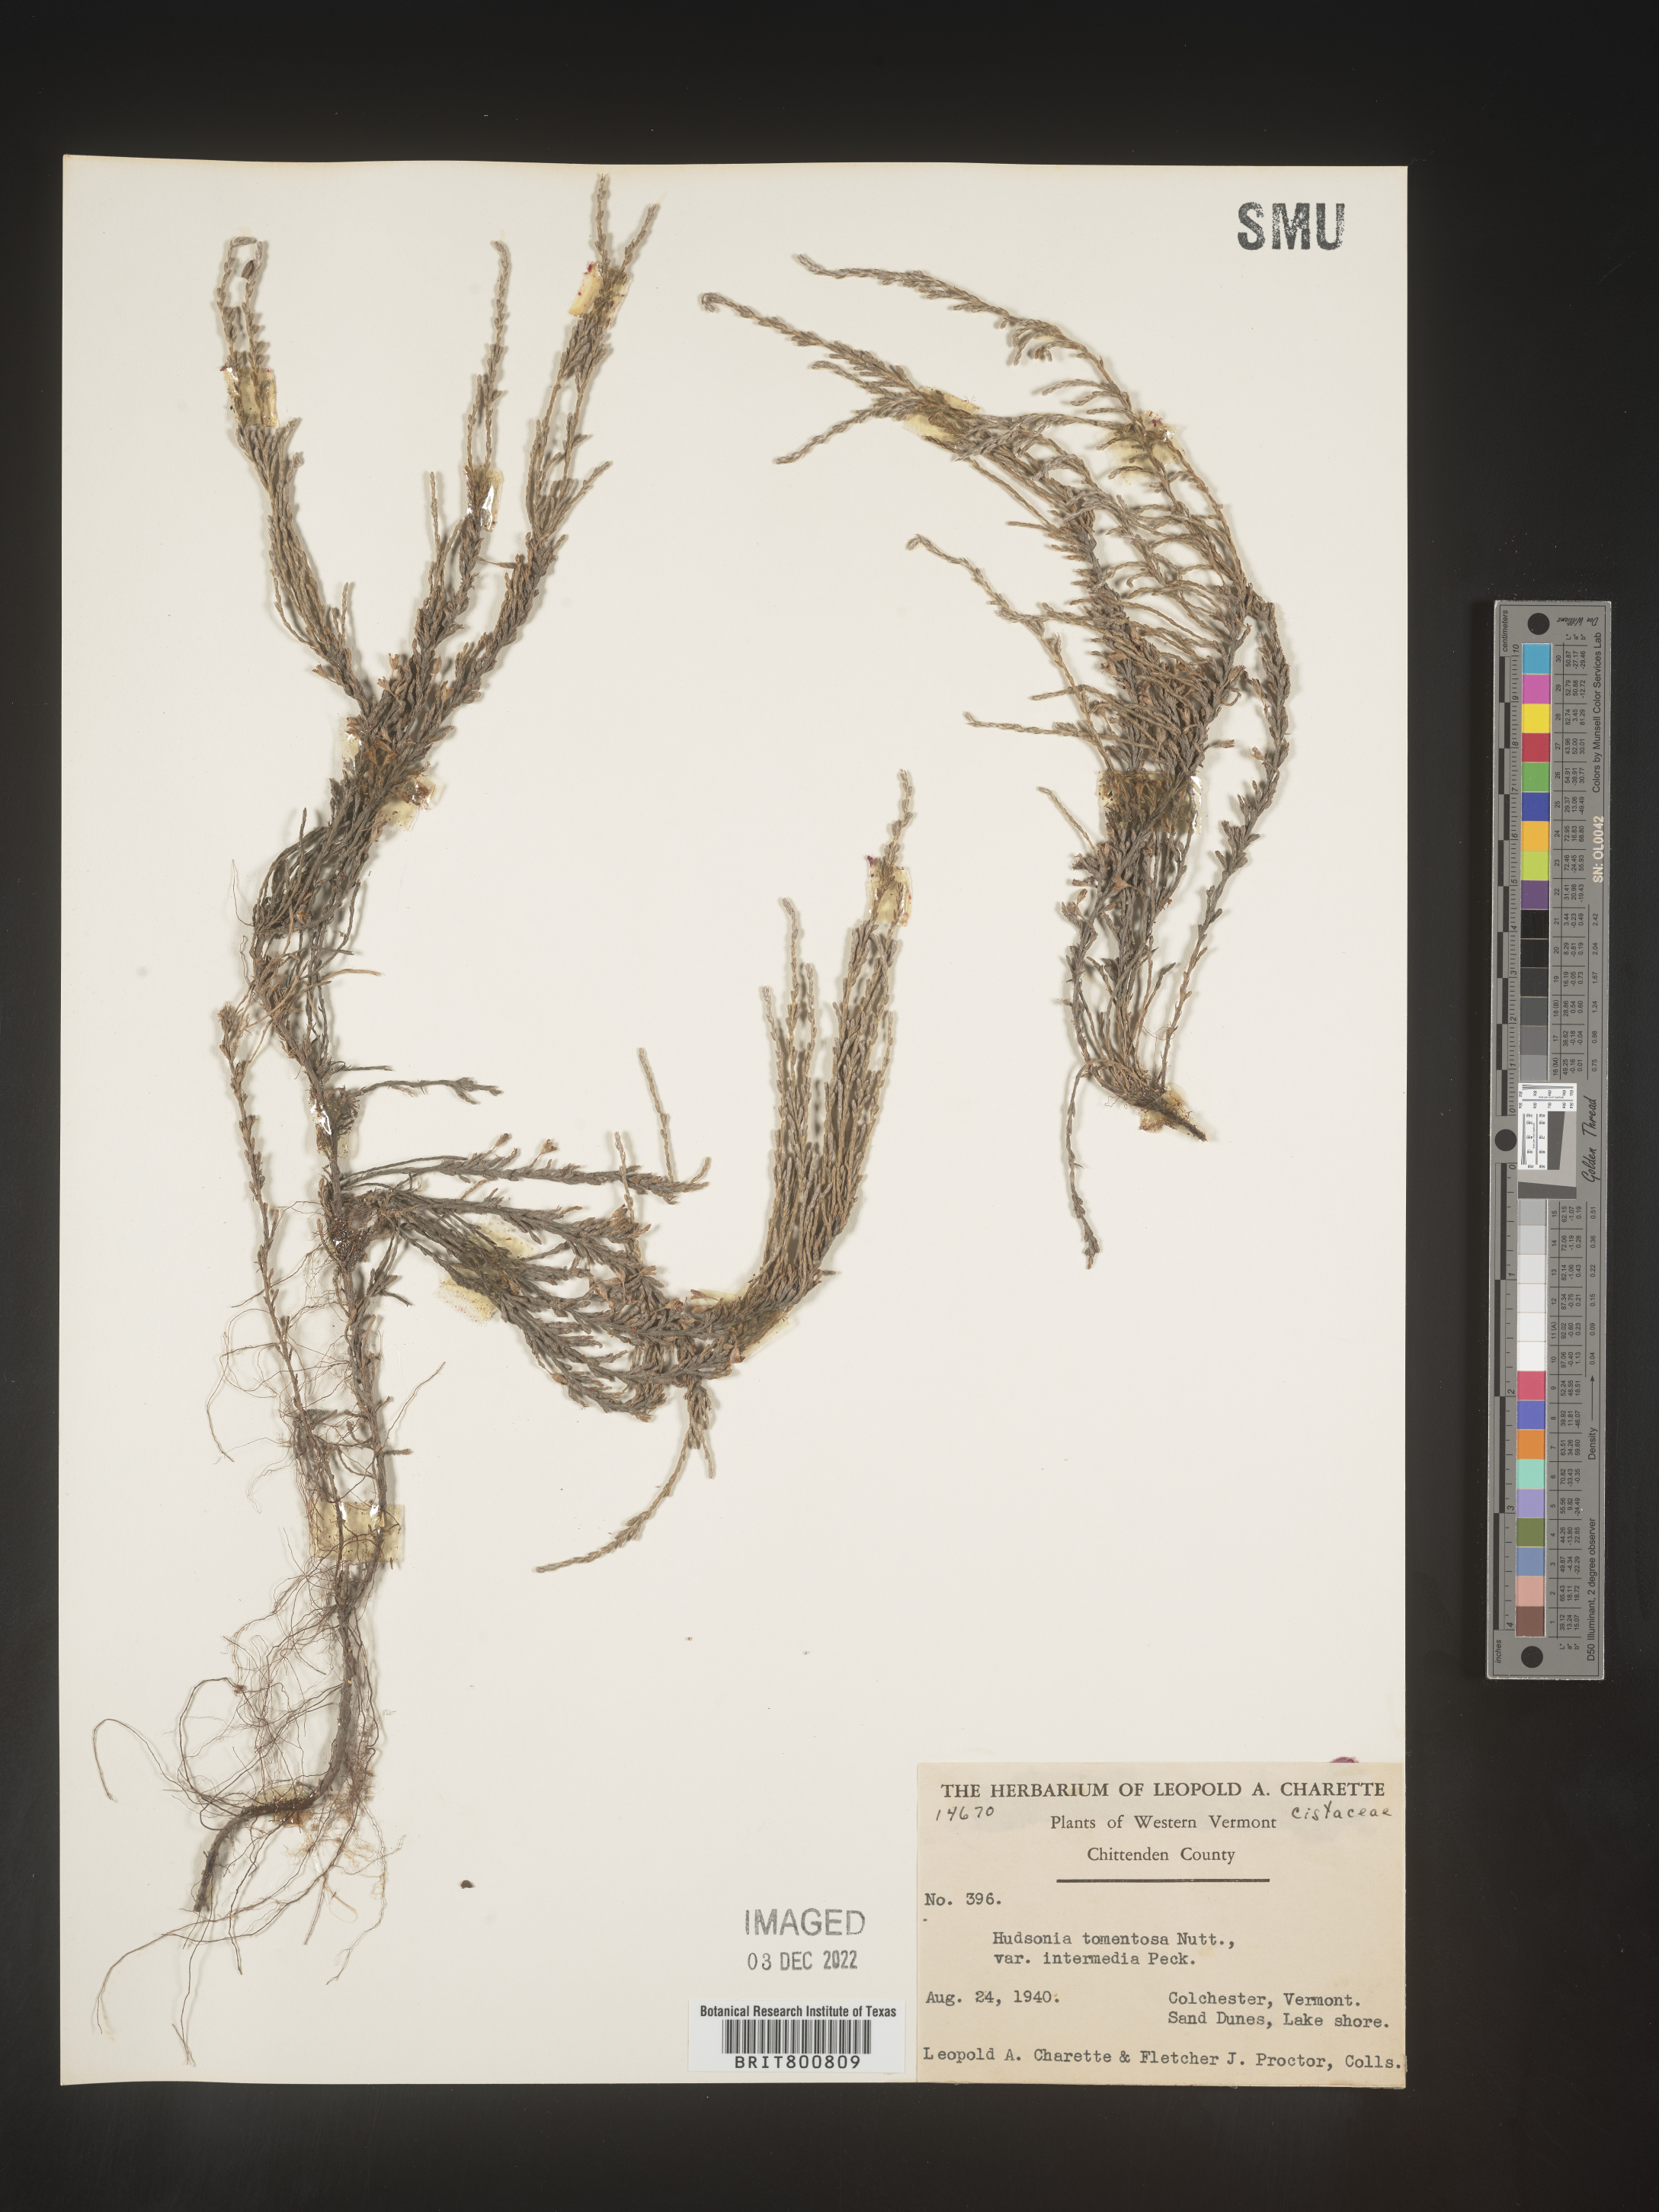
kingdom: Plantae
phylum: Tracheophyta
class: Magnoliopsida
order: Malvales
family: Cistaceae
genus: Hudsonia
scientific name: Hudsonia tomentosa
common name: Beach-heath
